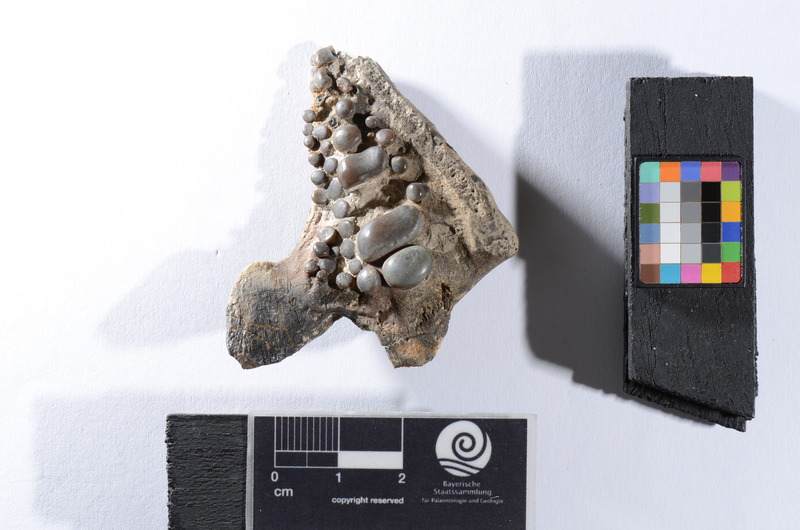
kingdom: Animalia
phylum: Chordata
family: Pycnodontes
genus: Macromesodon
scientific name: Macromesodon macropterus
